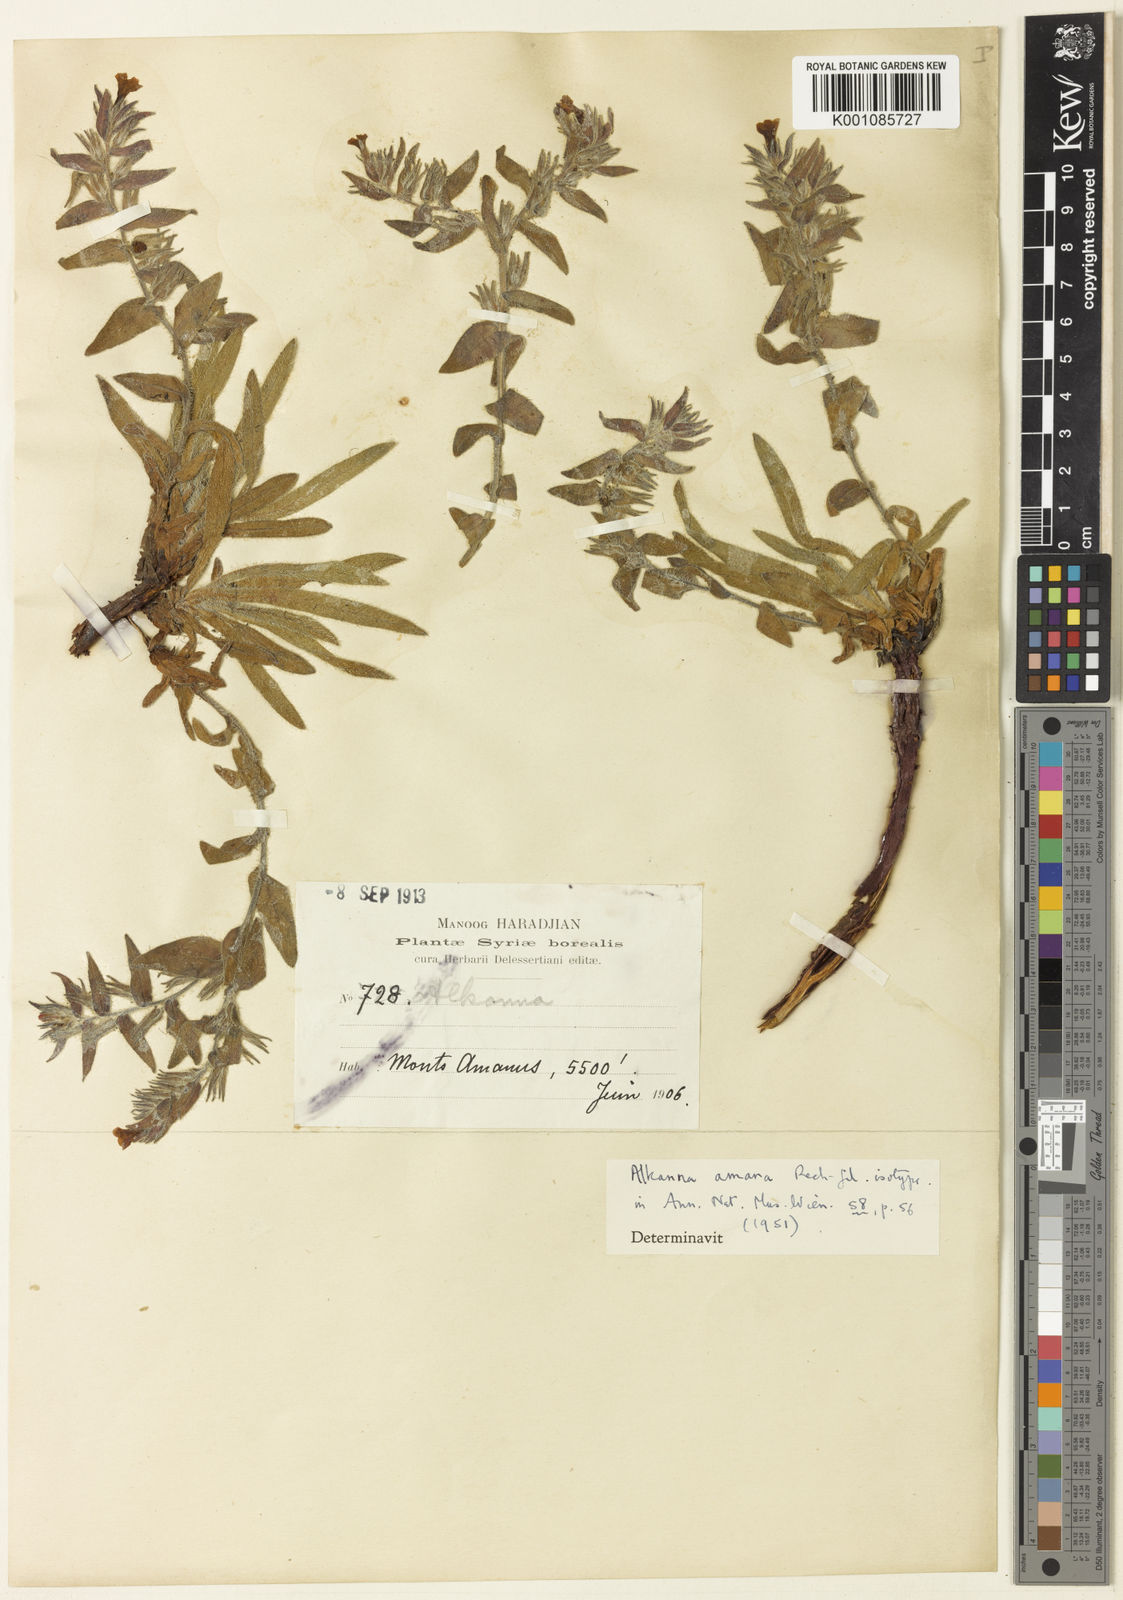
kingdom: Plantae
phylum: Tracheophyta
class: Magnoliopsida
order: Boraginales
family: Boraginaceae
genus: Alkanna
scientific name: Alkanna amana
